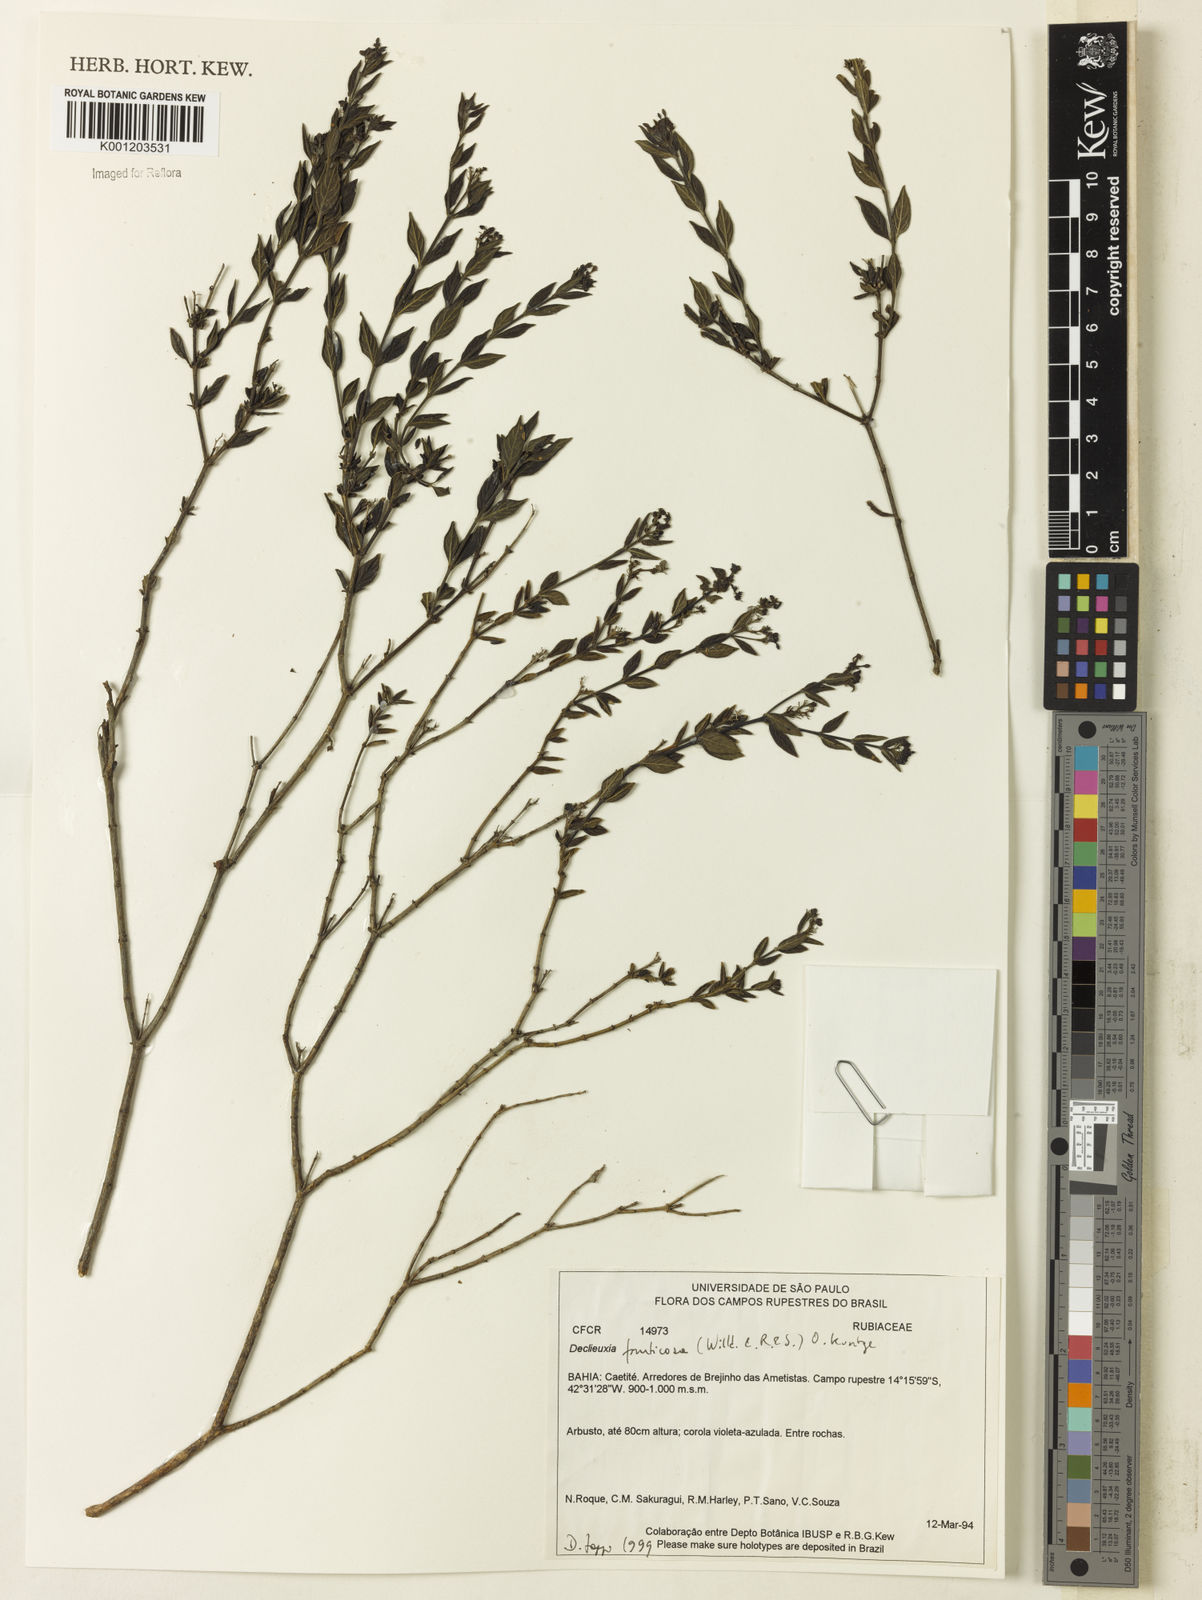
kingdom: Plantae
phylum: Tracheophyta
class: Magnoliopsida
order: Gentianales
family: Rubiaceae
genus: Declieuxia
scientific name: Declieuxia fruticosa
